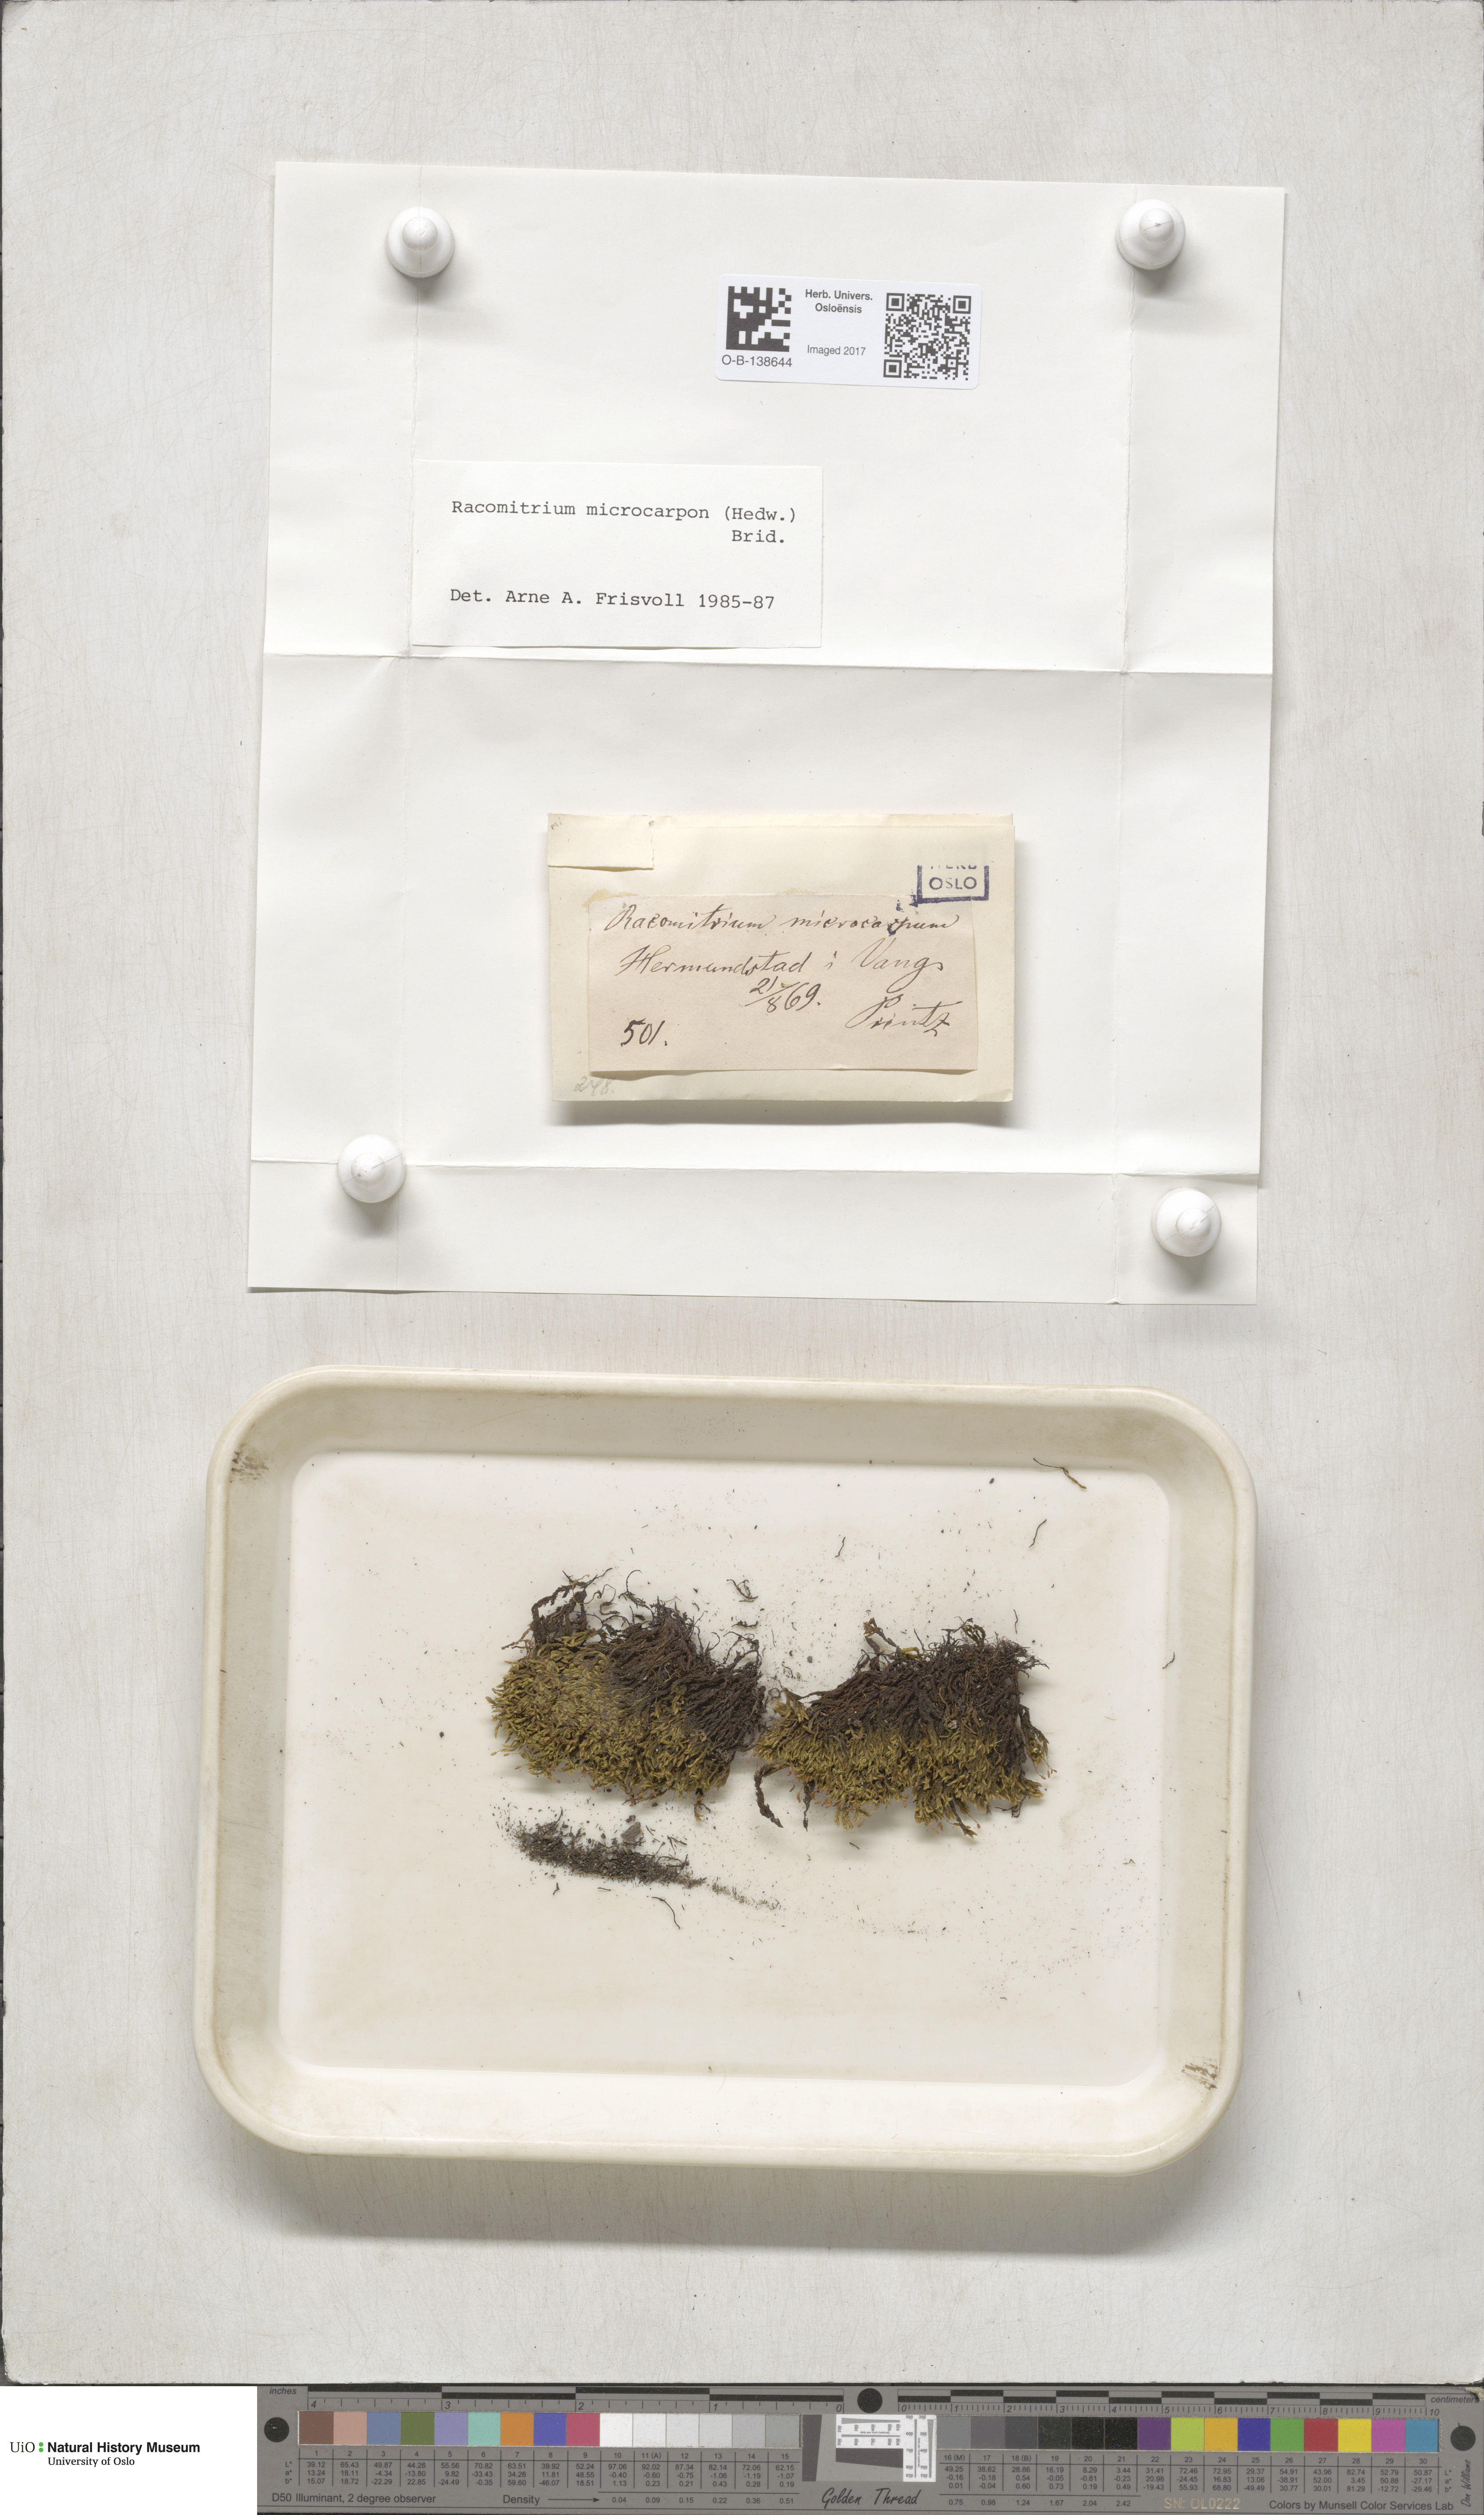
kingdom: Plantae
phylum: Bryophyta
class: Bryopsida
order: Grimmiales
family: Grimmiaceae
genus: Bucklandiella
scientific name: Bucklandiella microcarpos
